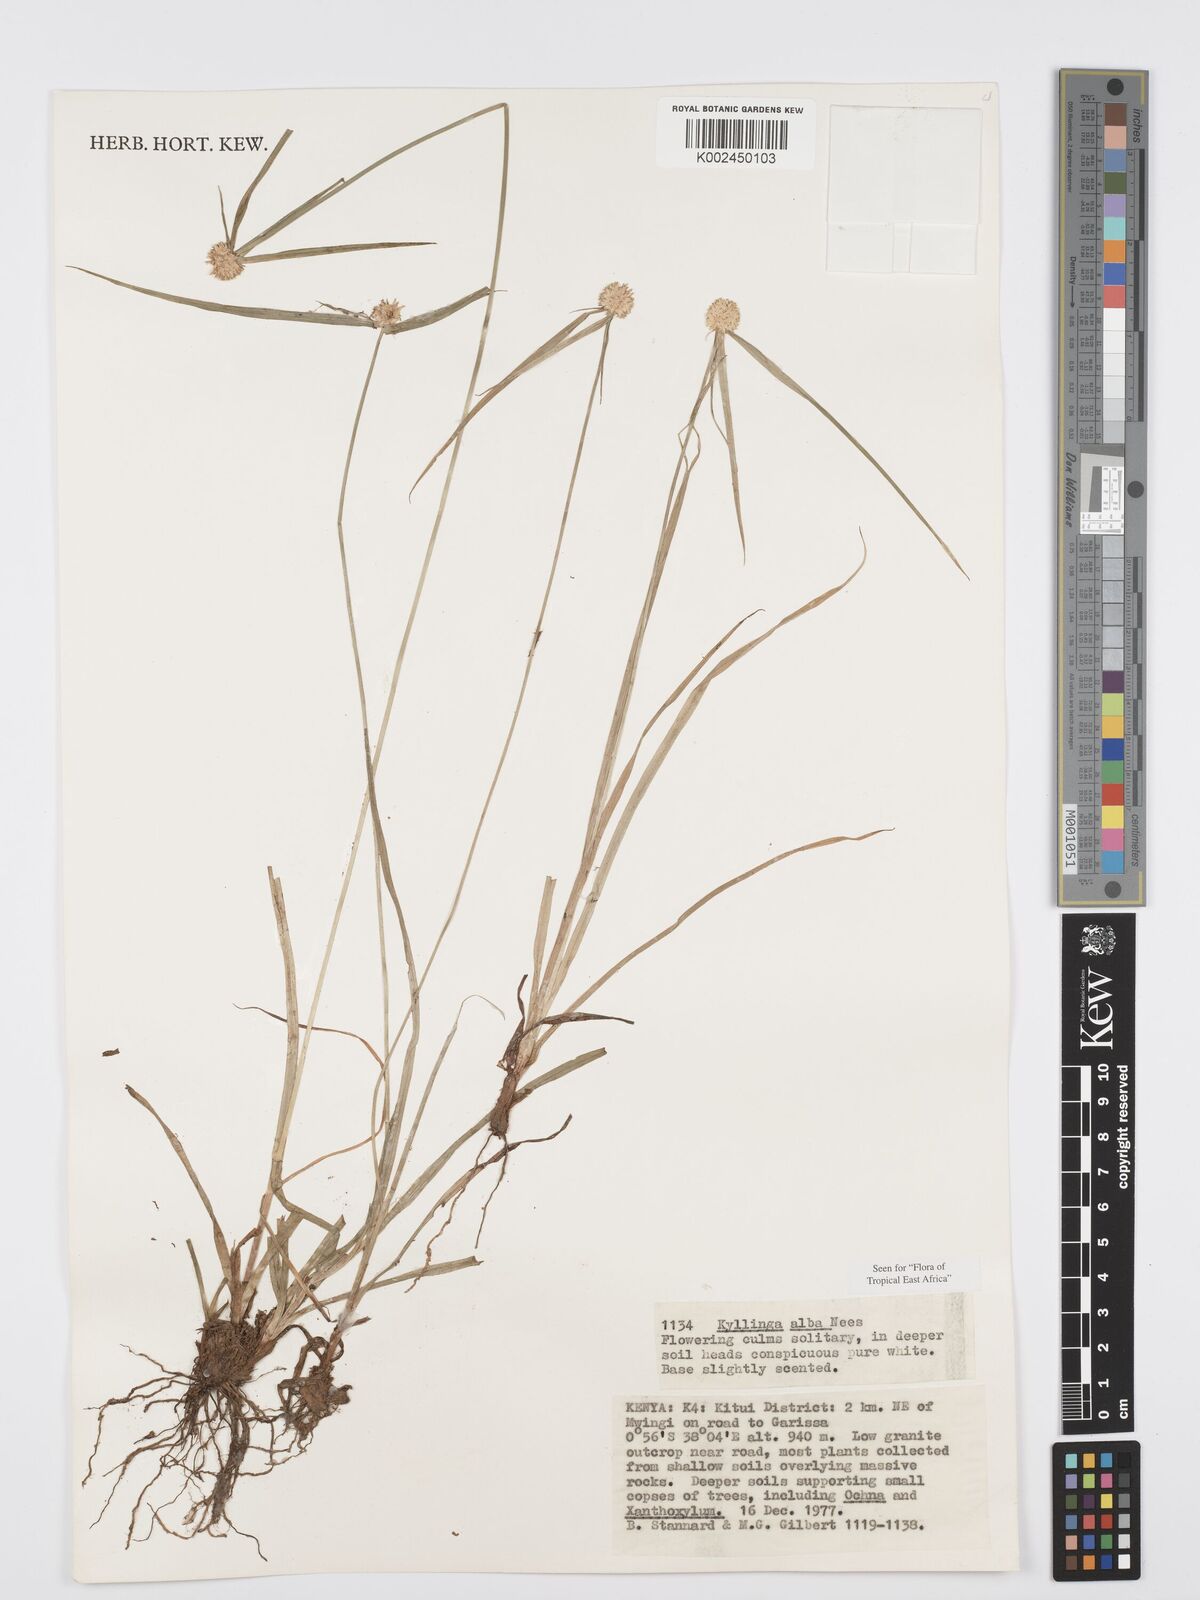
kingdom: Plantae
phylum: Tracheophyta
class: Liliopsida
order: Poales
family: Cyperaceae
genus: Cyperus
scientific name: Cyperus
